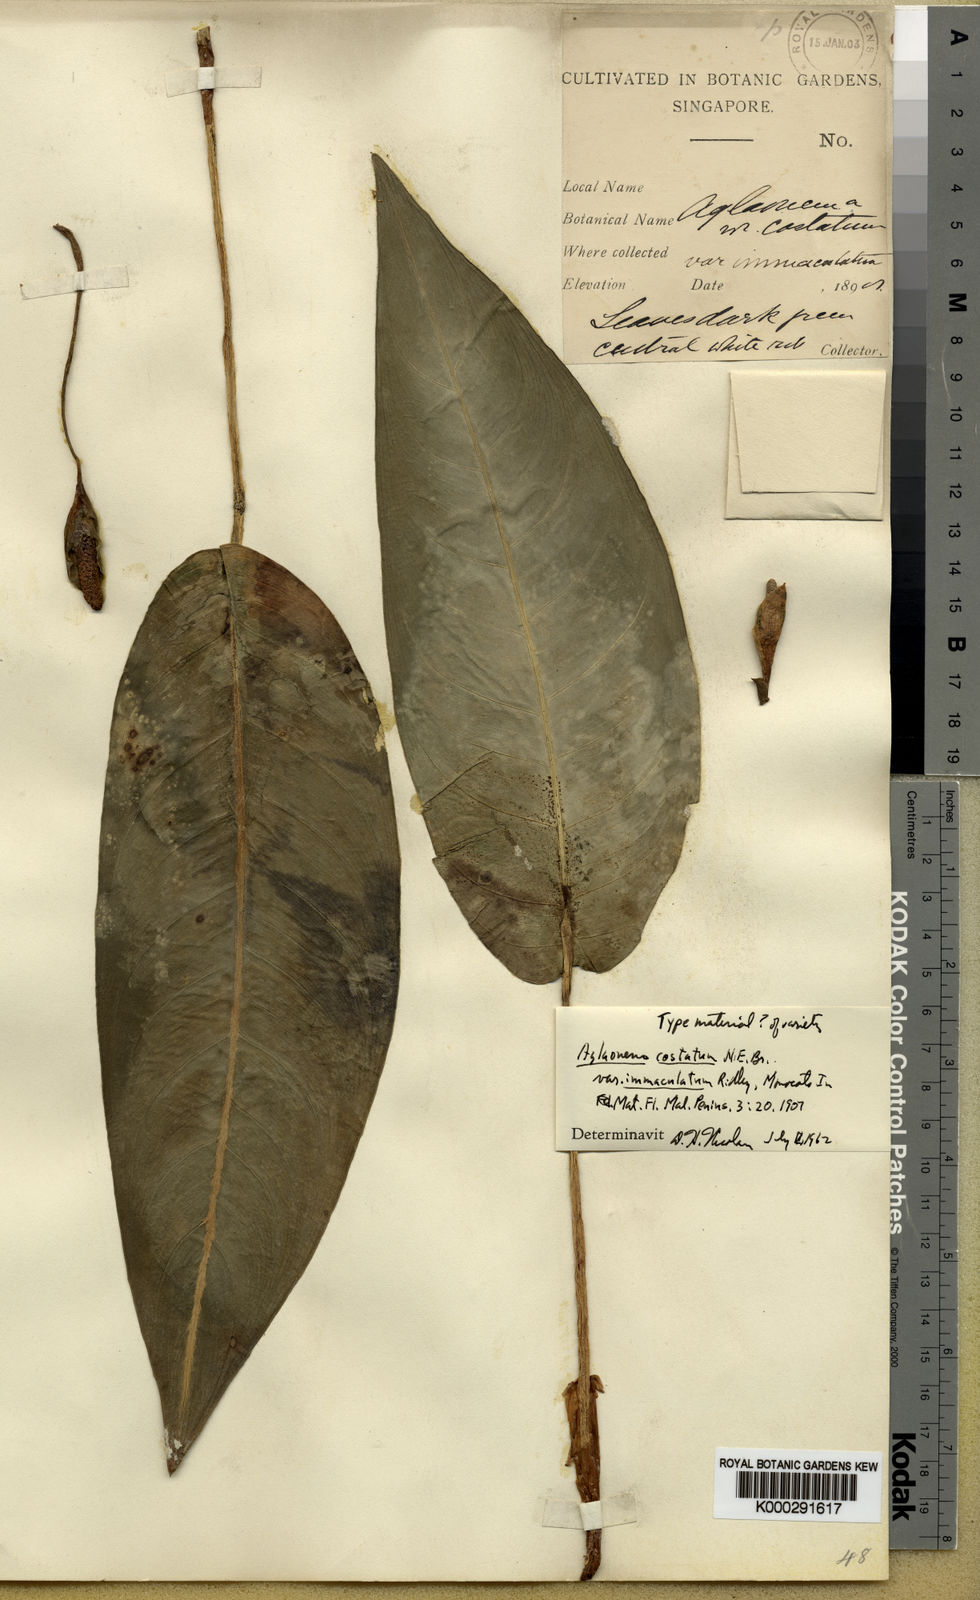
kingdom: Plantae
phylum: Tracheophyta
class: Liliopsida
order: Alismatales
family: Araceae
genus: Aglaonema
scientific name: Aglaonema costatum
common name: Chinese evergreen
